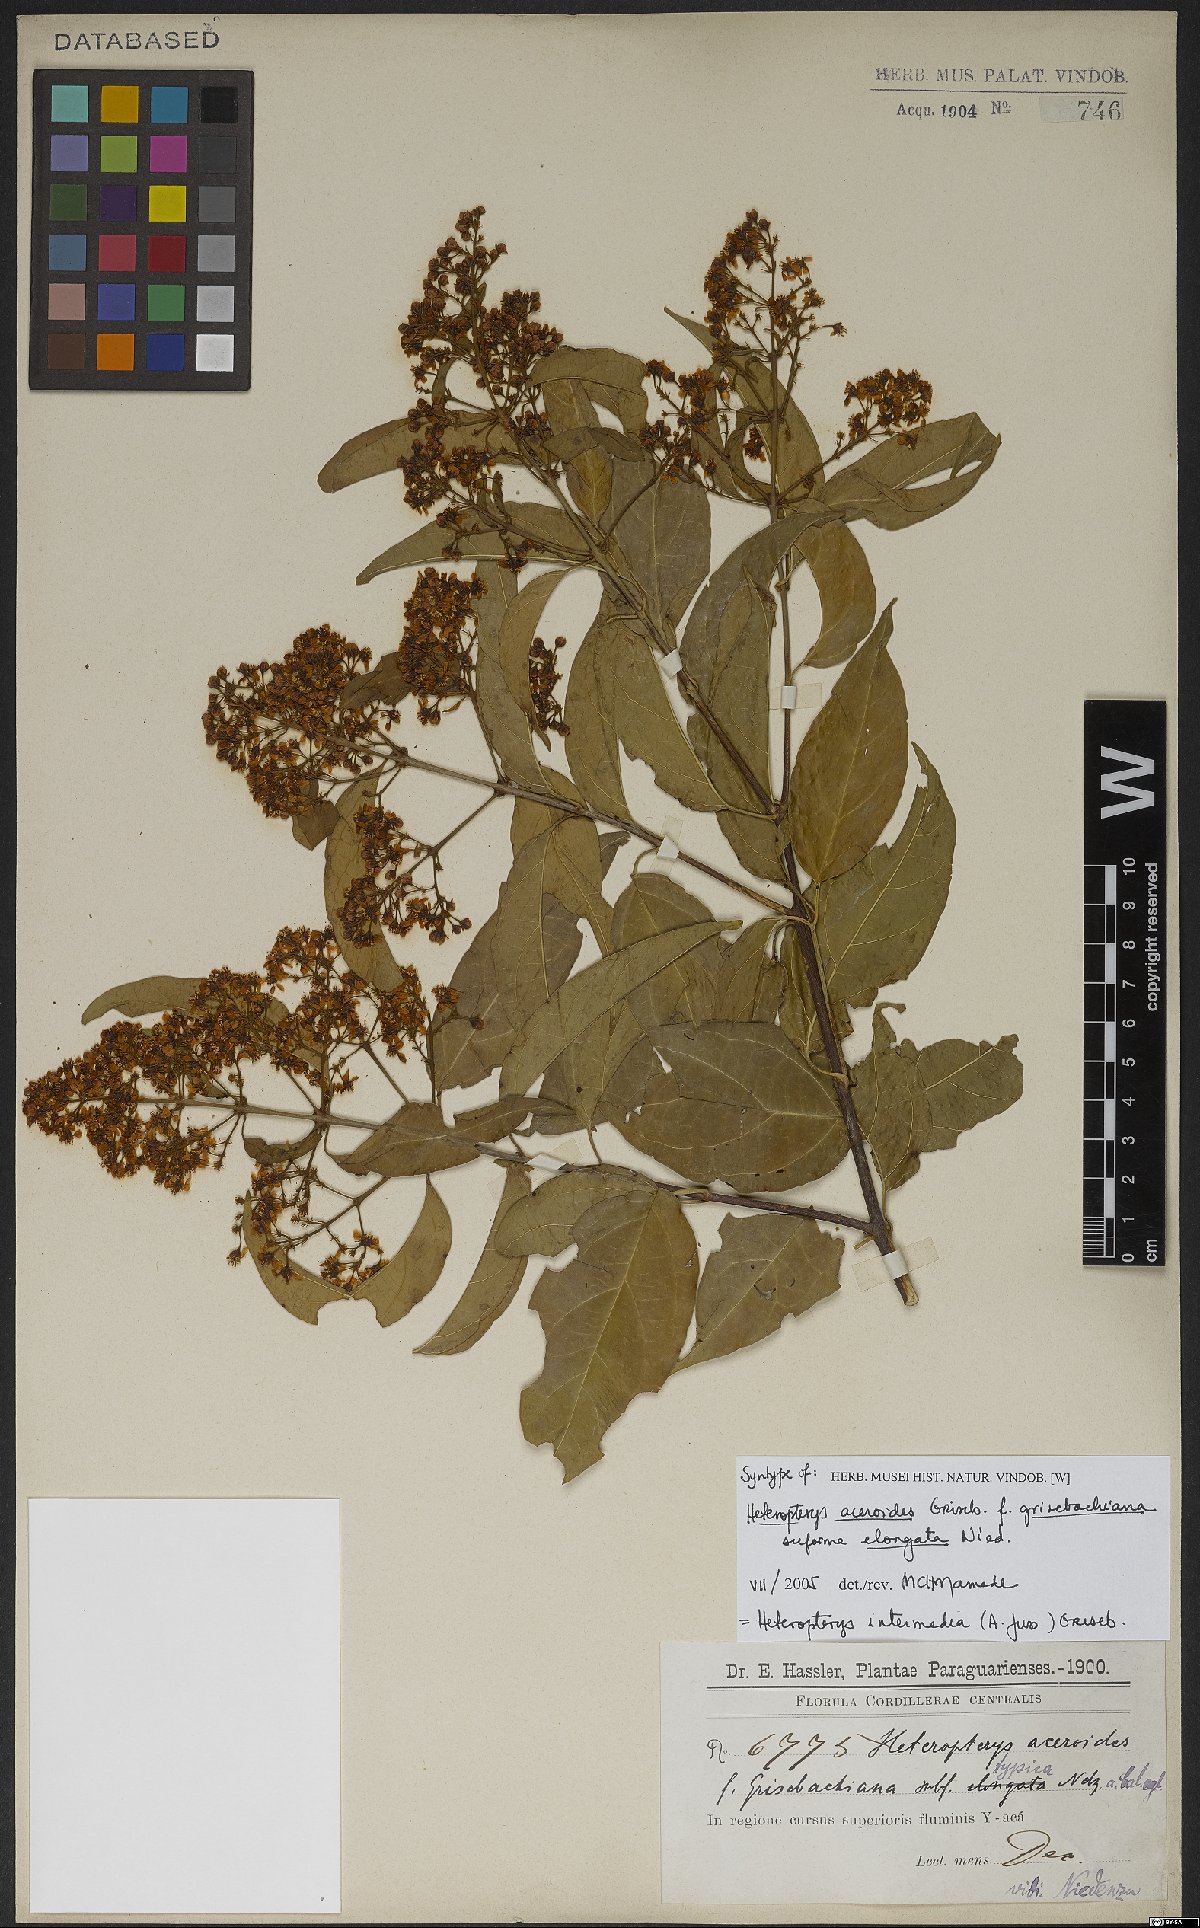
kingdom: Plantae
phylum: Tracheophyta
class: Magnoliopsida
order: Malpighiales
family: Malpighiaceae
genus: Heteropterys
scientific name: Heteropterys intermedia
